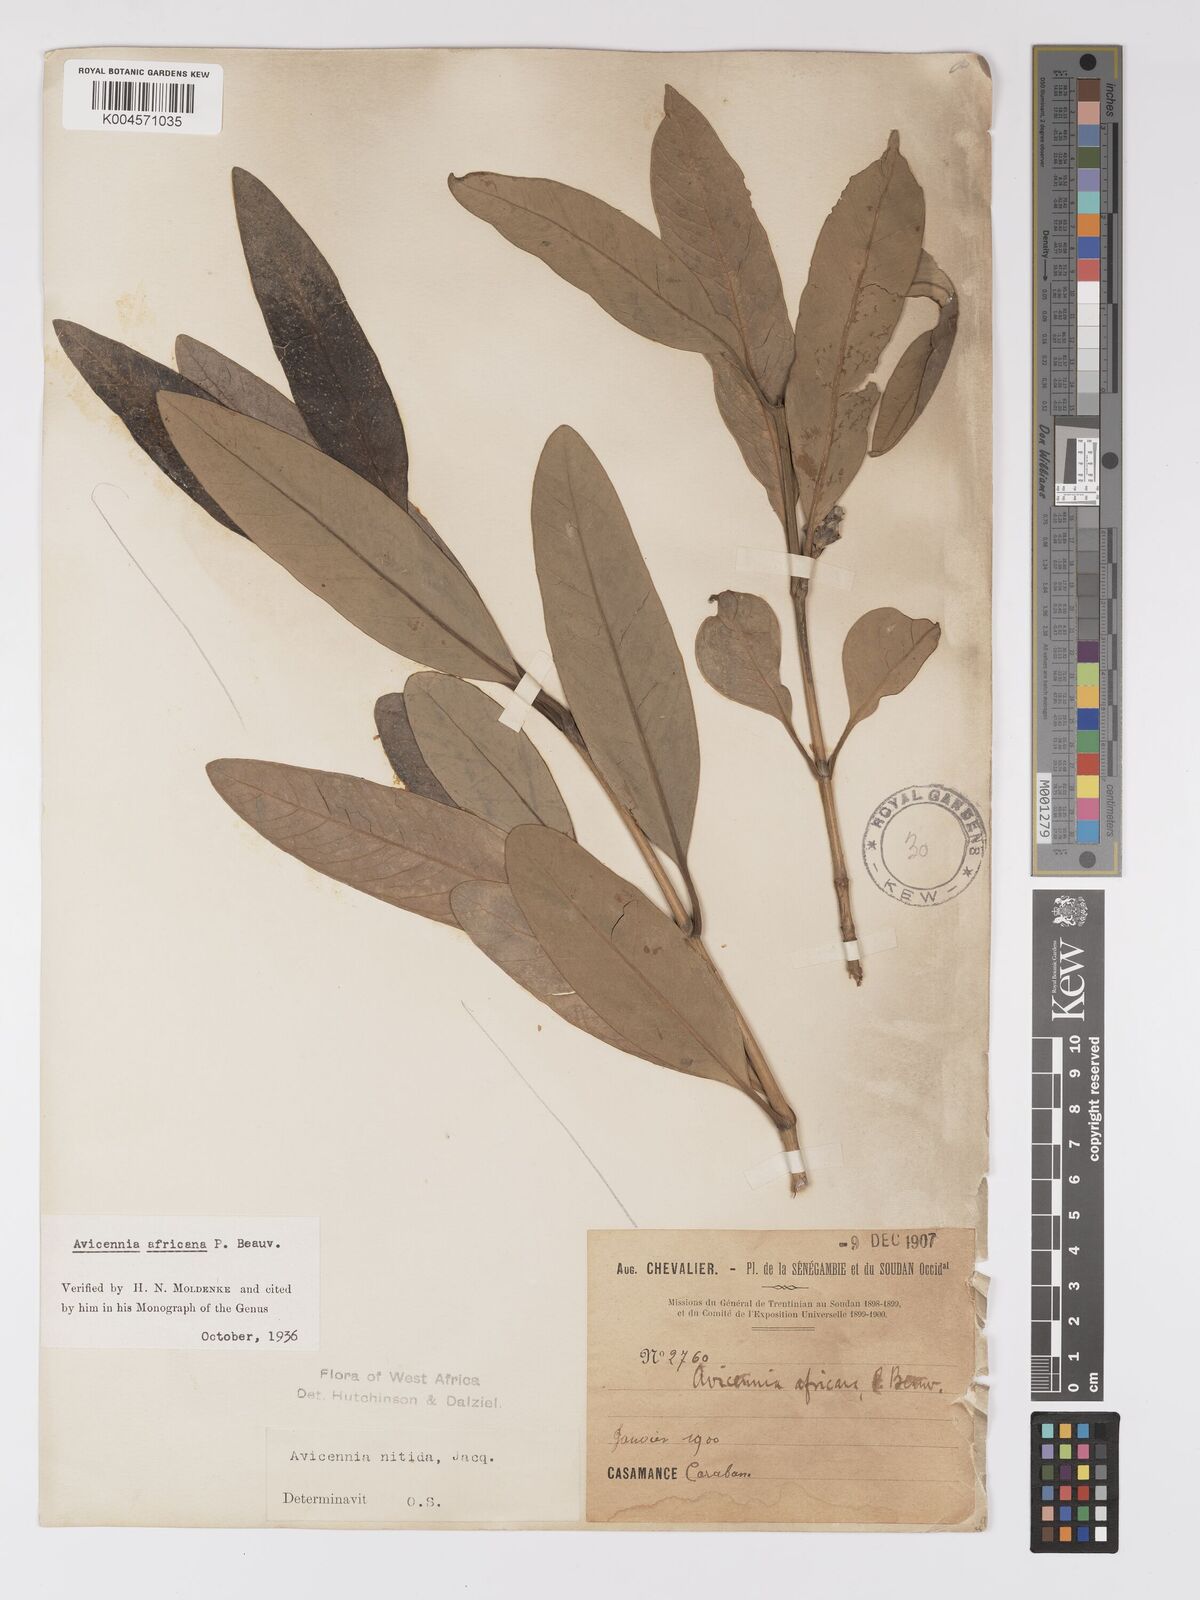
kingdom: Plantae
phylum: Tracheophyta
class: Magnoliopsida
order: Lamiales
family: Acanthaceae
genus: Avicennia
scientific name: Avicennia germinans
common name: Black mangrove
